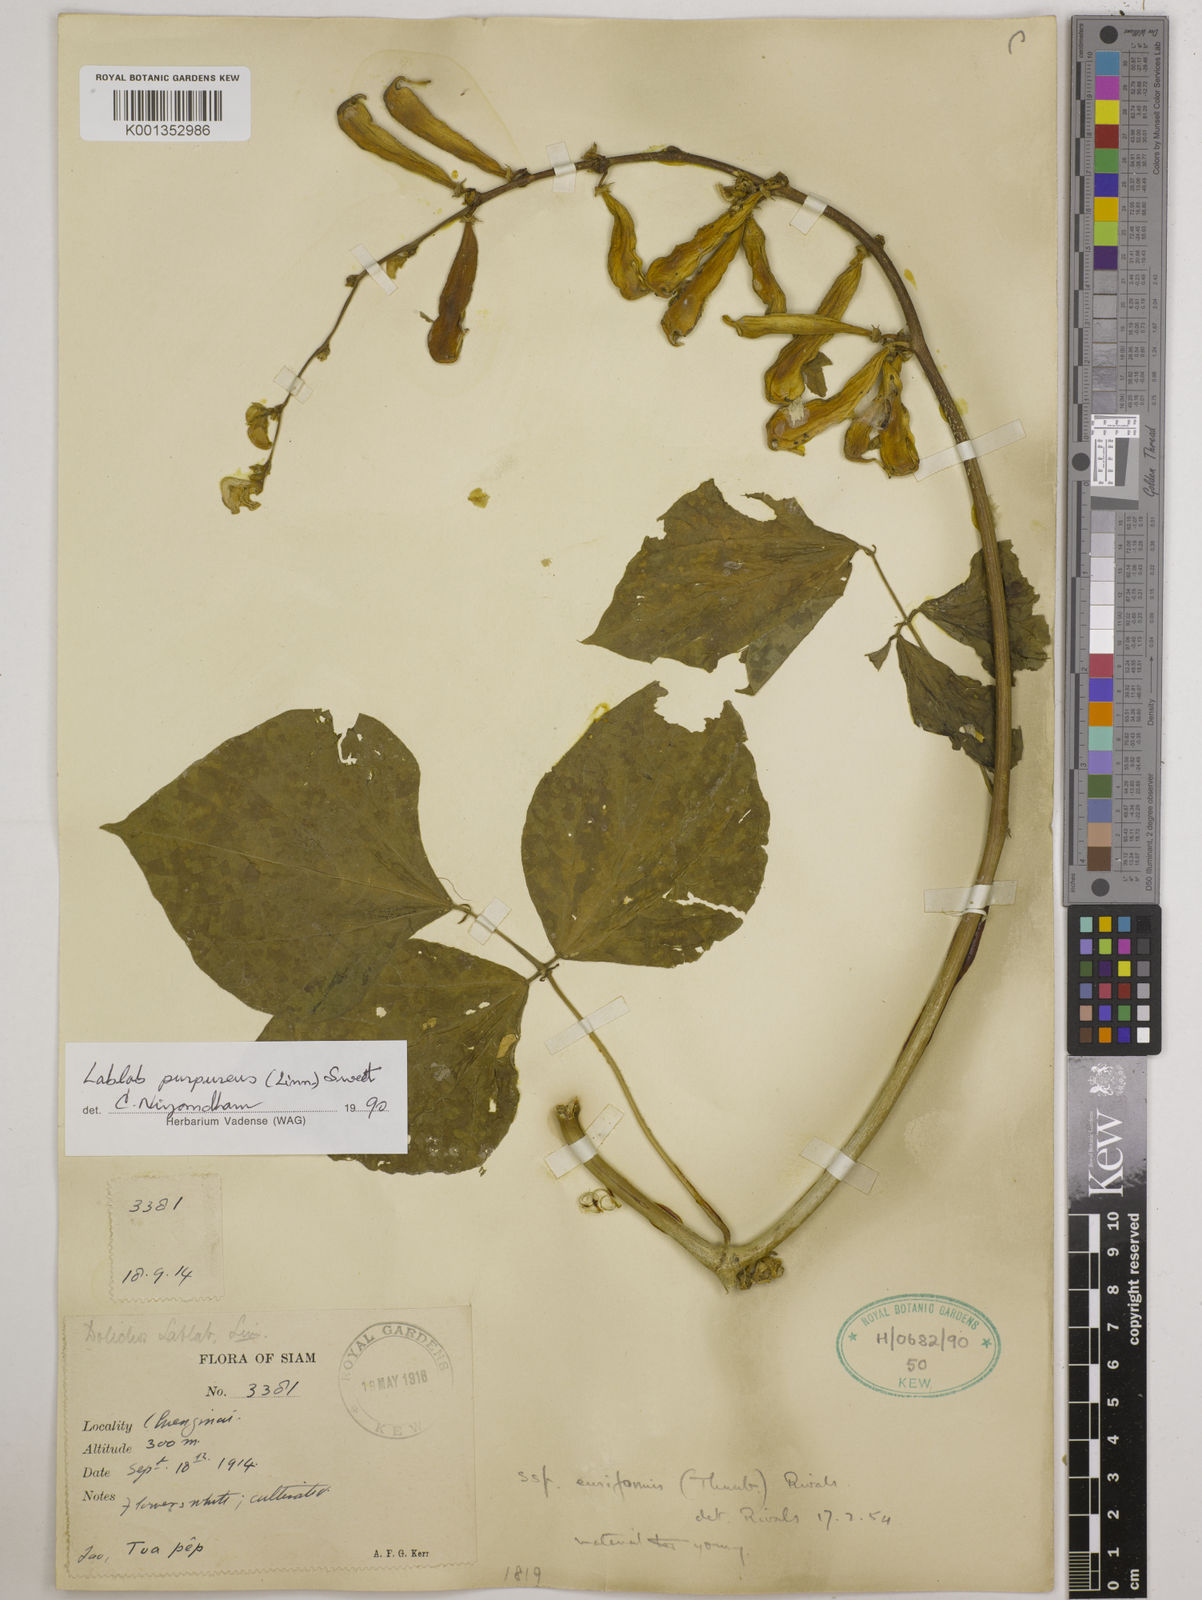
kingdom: Plantae
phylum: Tracheophyta
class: Magnoliopsida
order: Fabales
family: Fabaceae
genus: Lablab
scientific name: Lablab purpureus
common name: Lablab-bean
